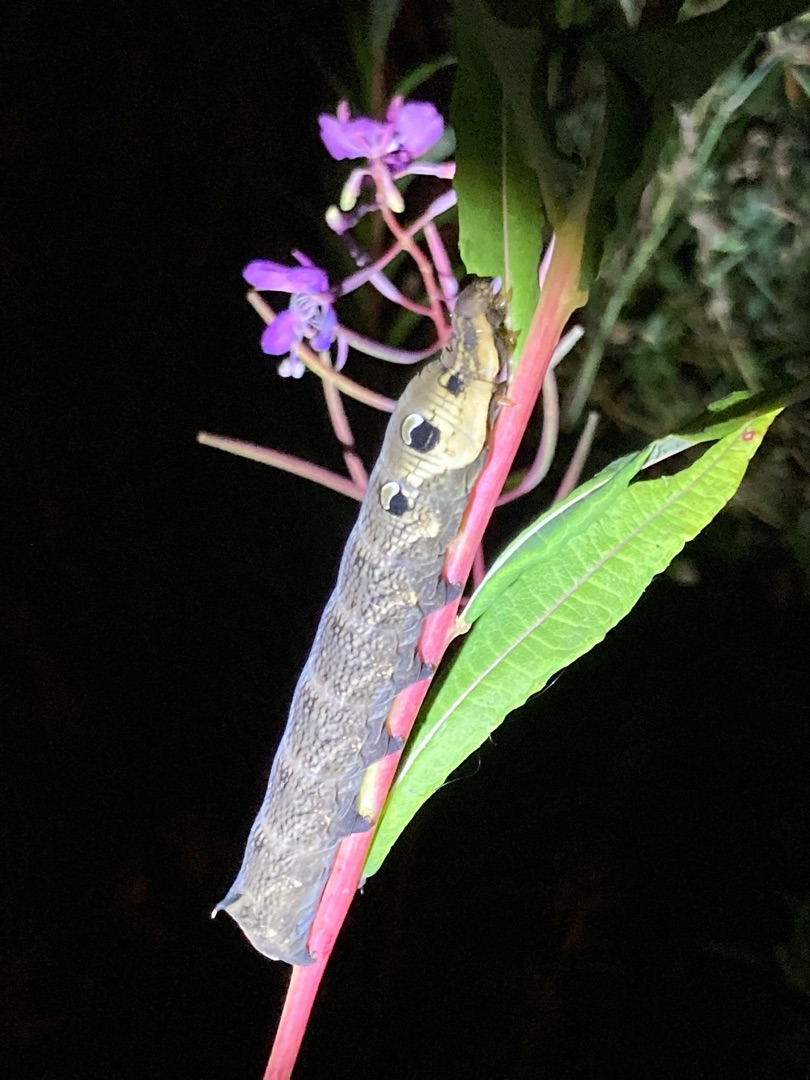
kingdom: Animalia
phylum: Arthropoda
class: Insecta
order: Lepidoptera
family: Sphingidae
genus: Deilephila
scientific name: Deilephila elpenor
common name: Dueurtsværmer
